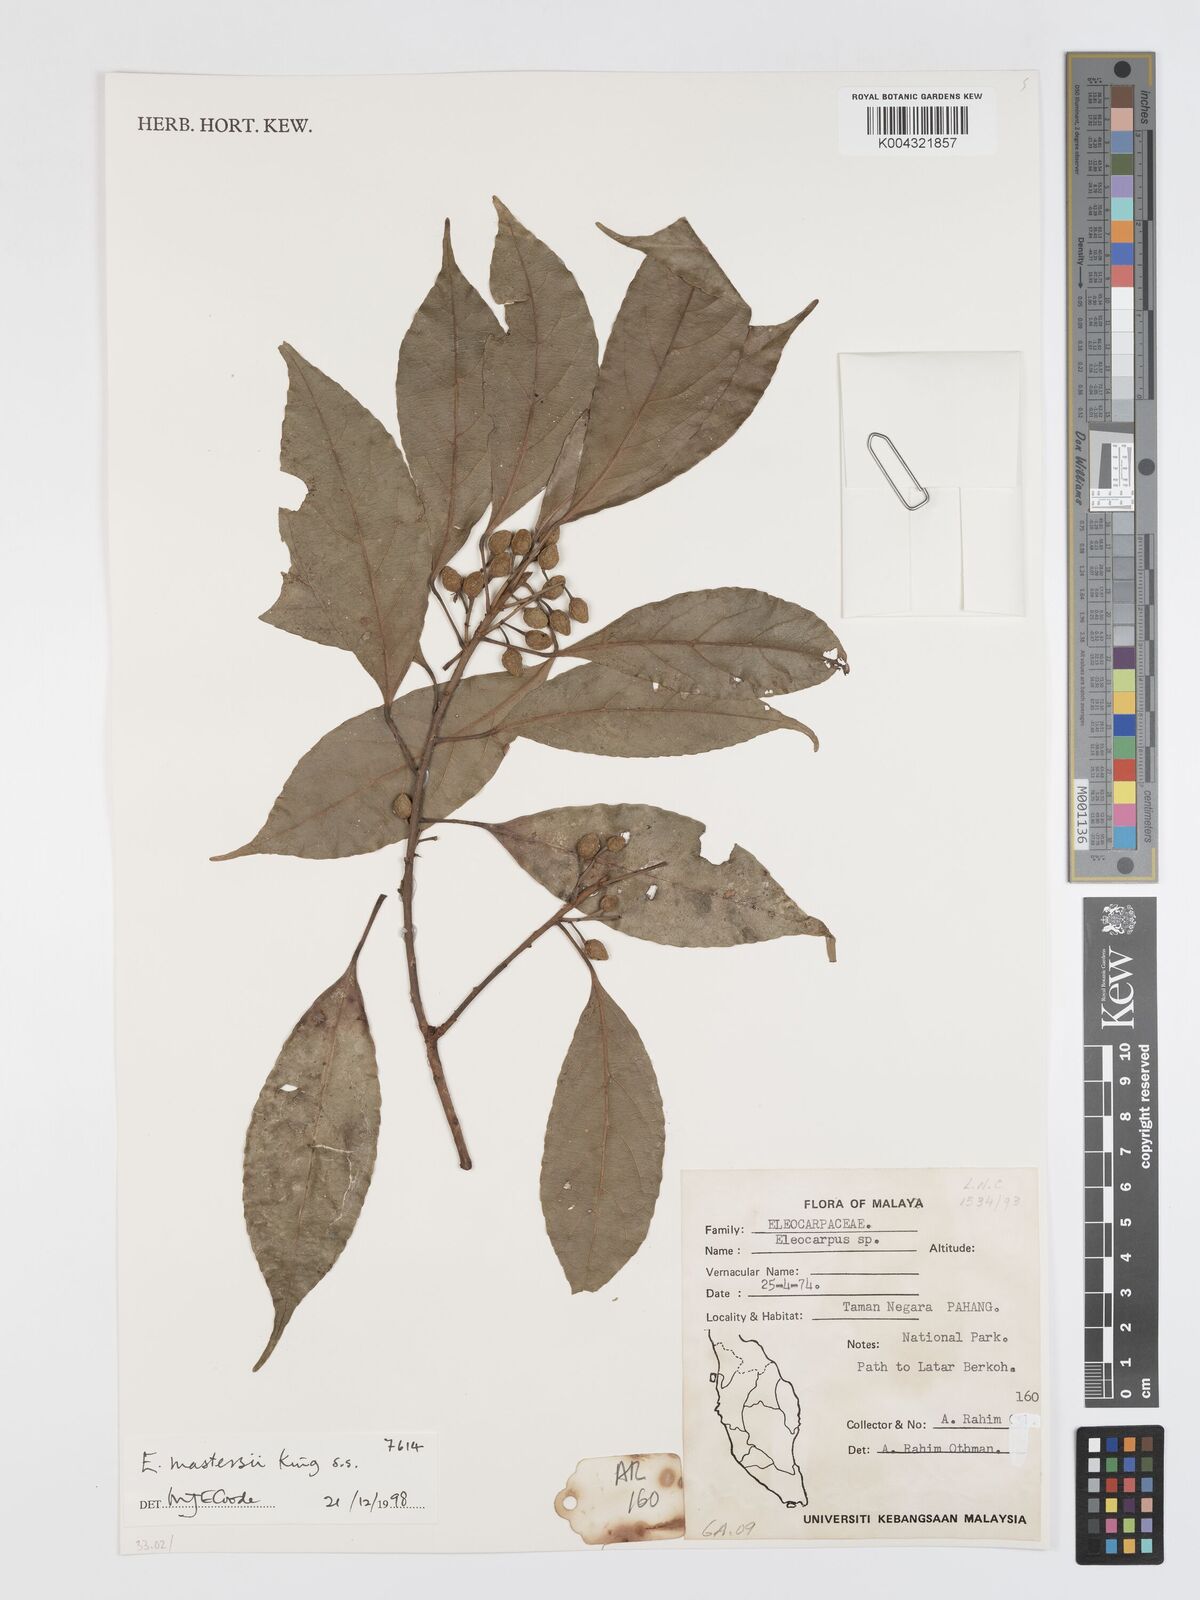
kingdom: Plantae
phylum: Tracheophyta
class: Magnoliopsida
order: Oxalidales
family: Elaeocarpaceae
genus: Elaeocarpus
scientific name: Elaeocarpus mastersii
